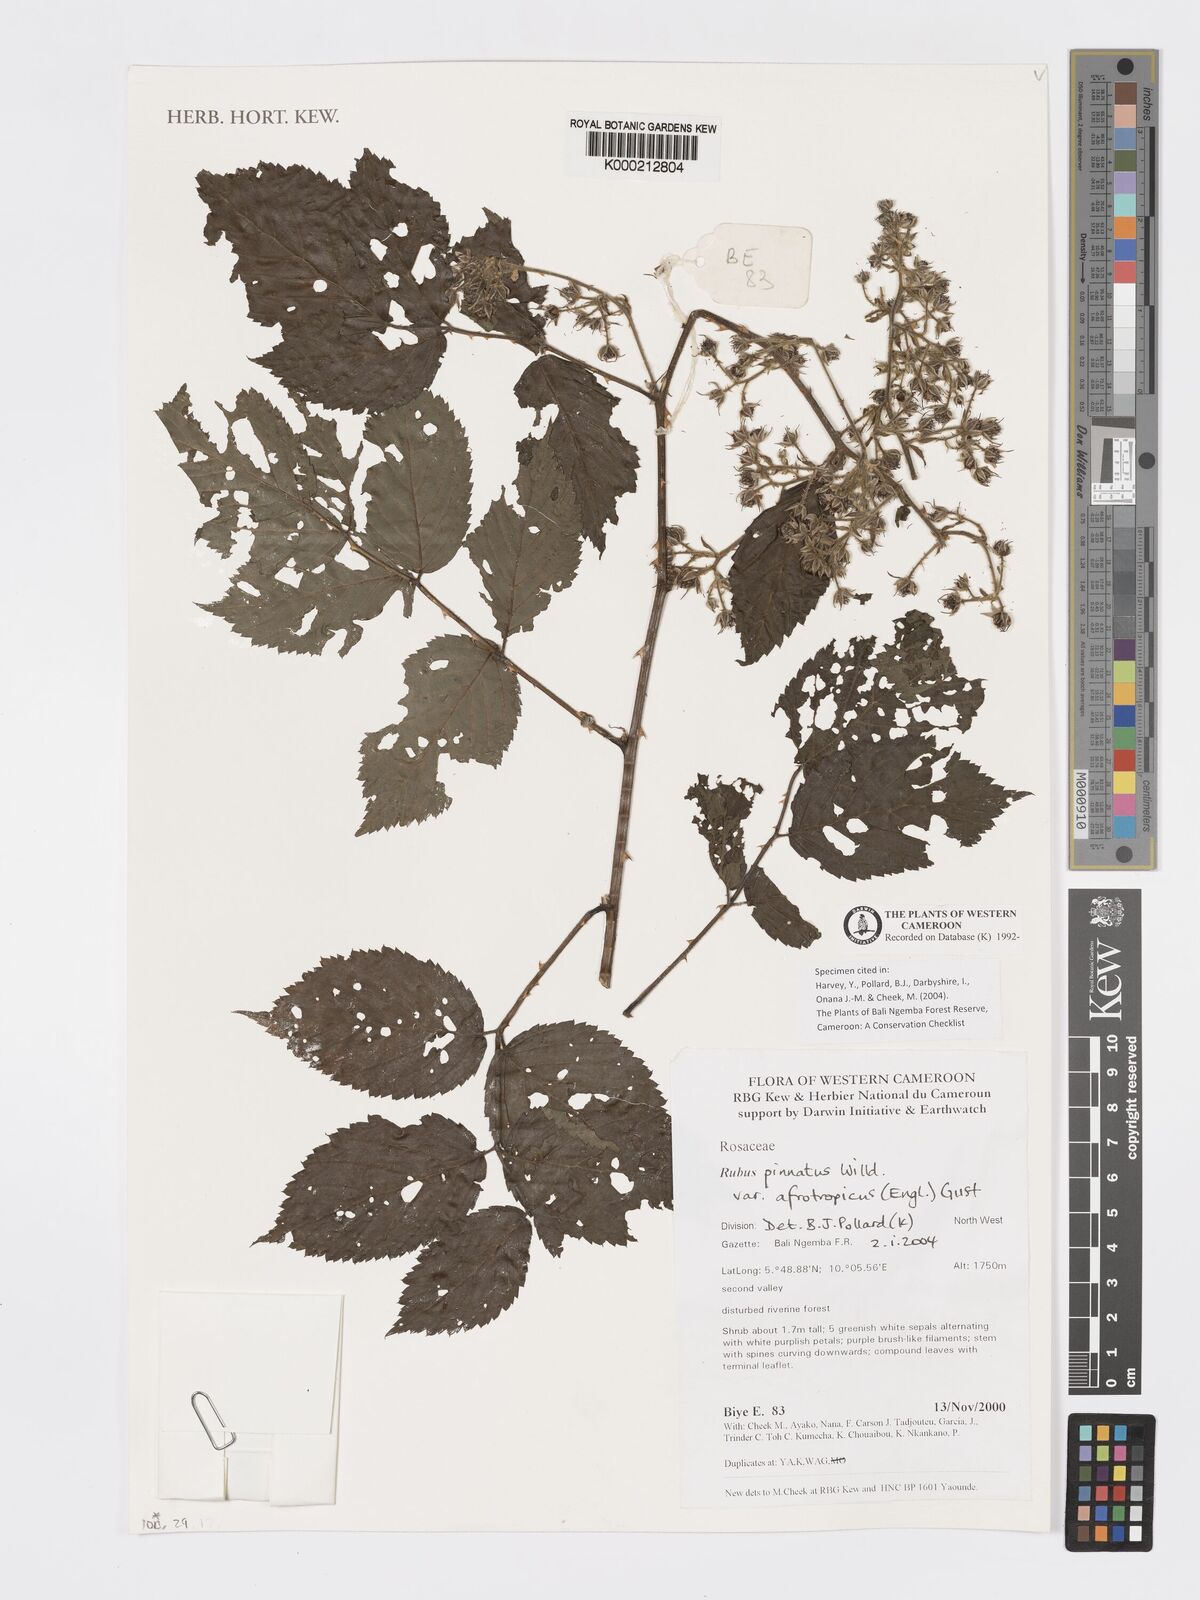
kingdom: Plantae
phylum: Tracheophyta
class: Magnoliopsida
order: Rosales
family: Rosaceae
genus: Rubus
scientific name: Rubus pinnatus
